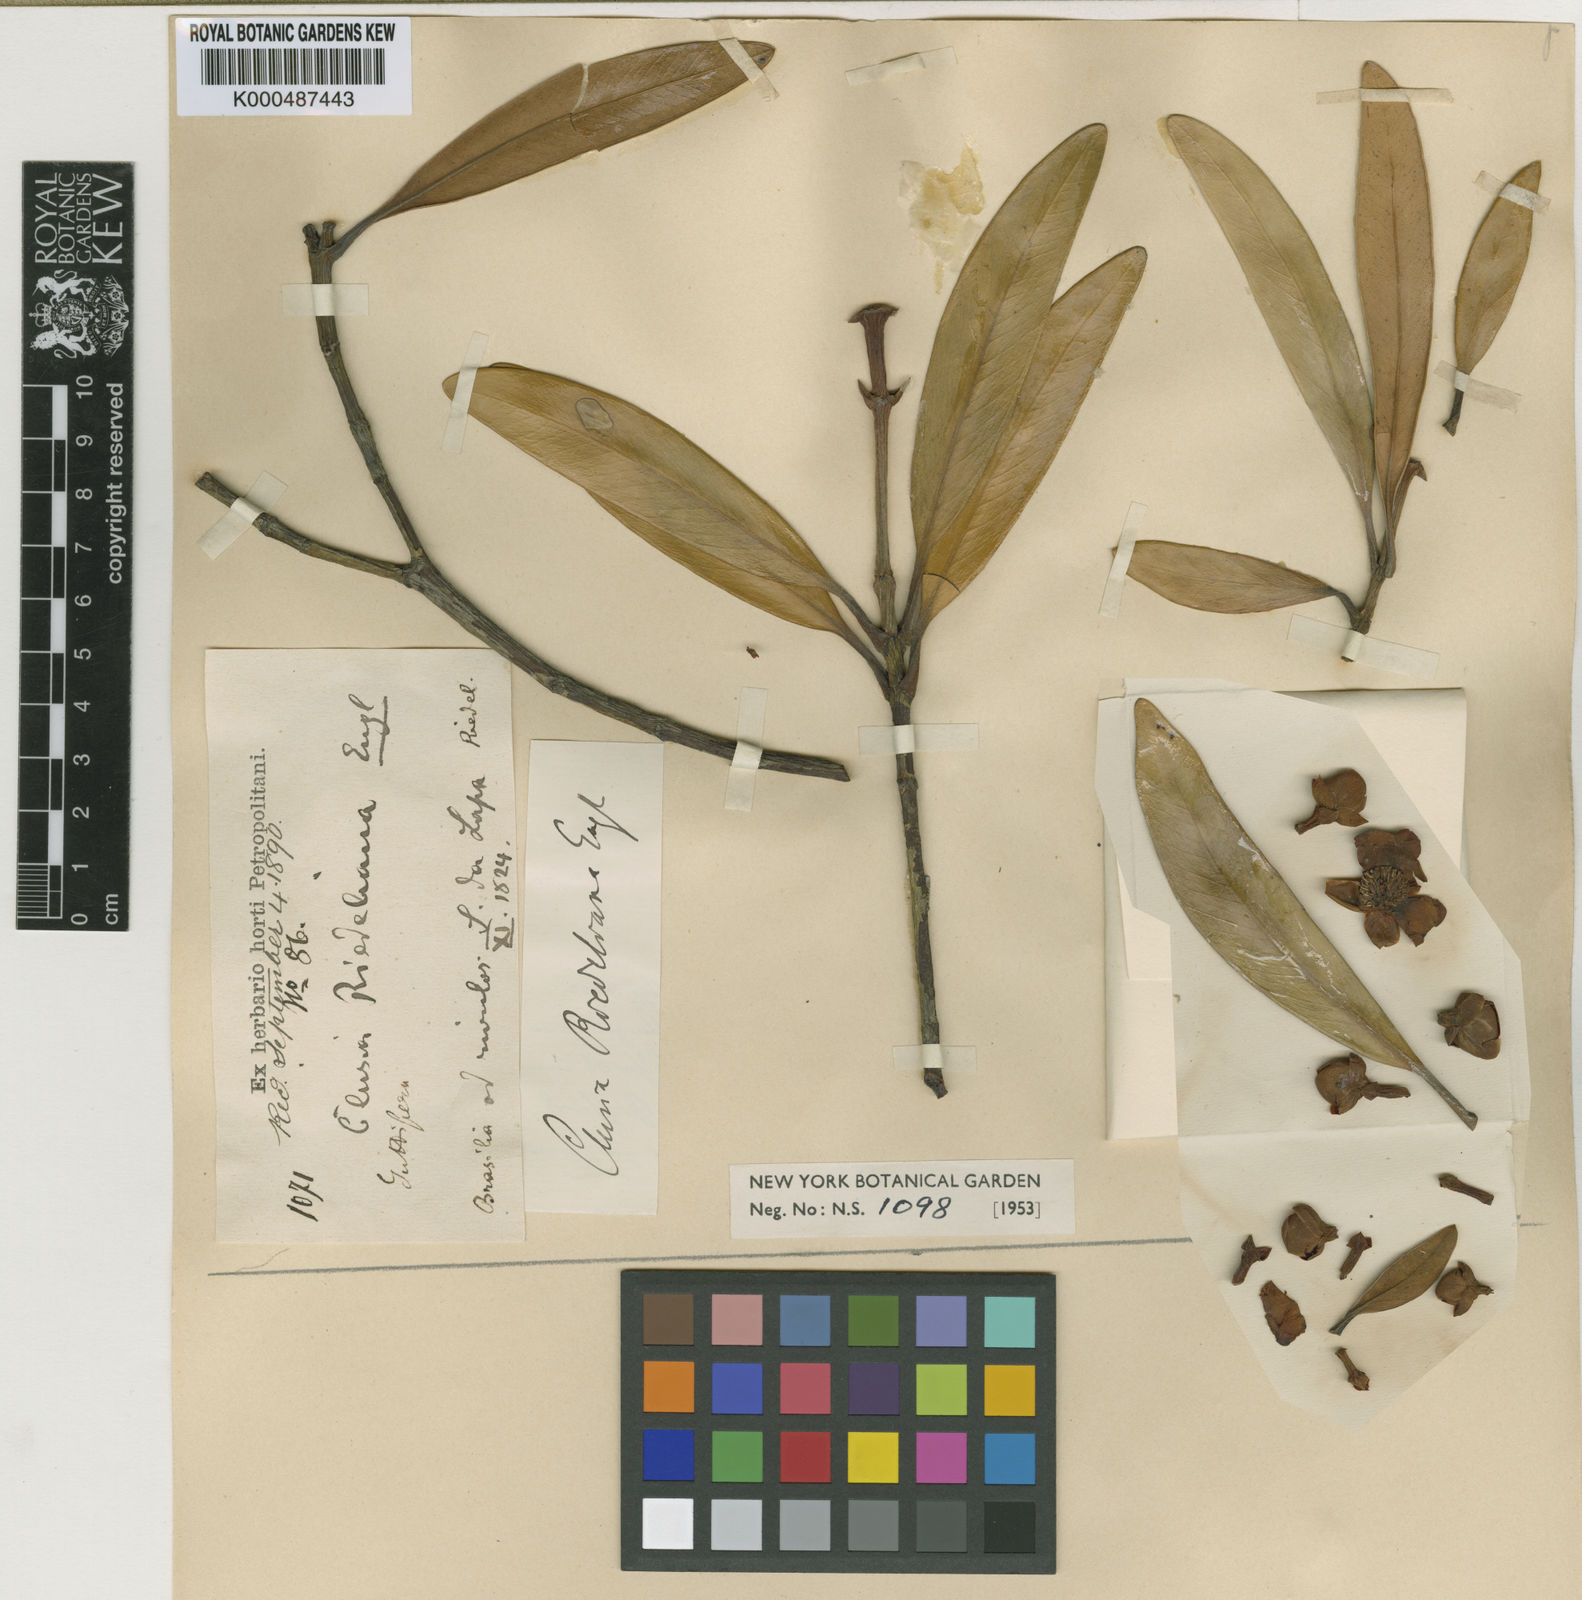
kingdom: Plantae
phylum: Tracheophyta
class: Magnoliopsida
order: Malpighiales
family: Clusiaceae
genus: Clusia
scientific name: Clusia riedeliana
